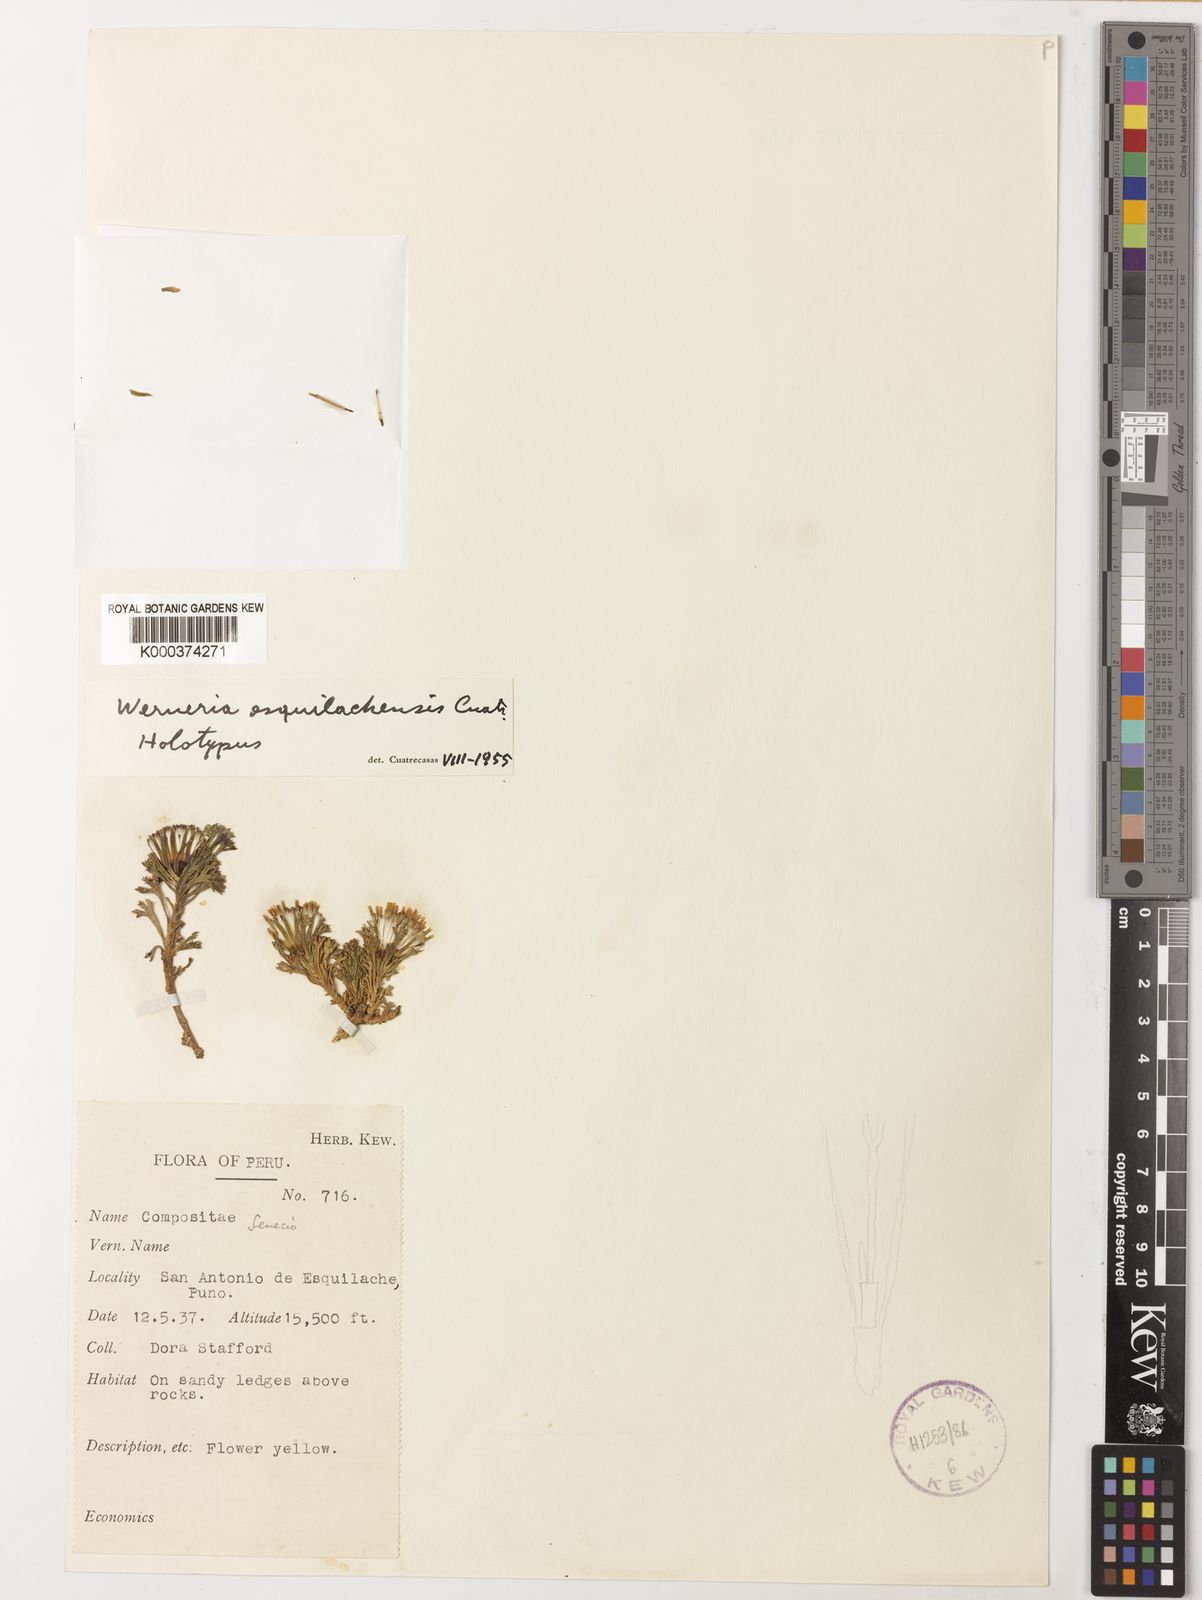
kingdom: Plantae
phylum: Tracheophyta
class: Magnoliopsida
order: Asterales
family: Asteraceae
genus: Werneria
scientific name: Werneria esquilachensis
